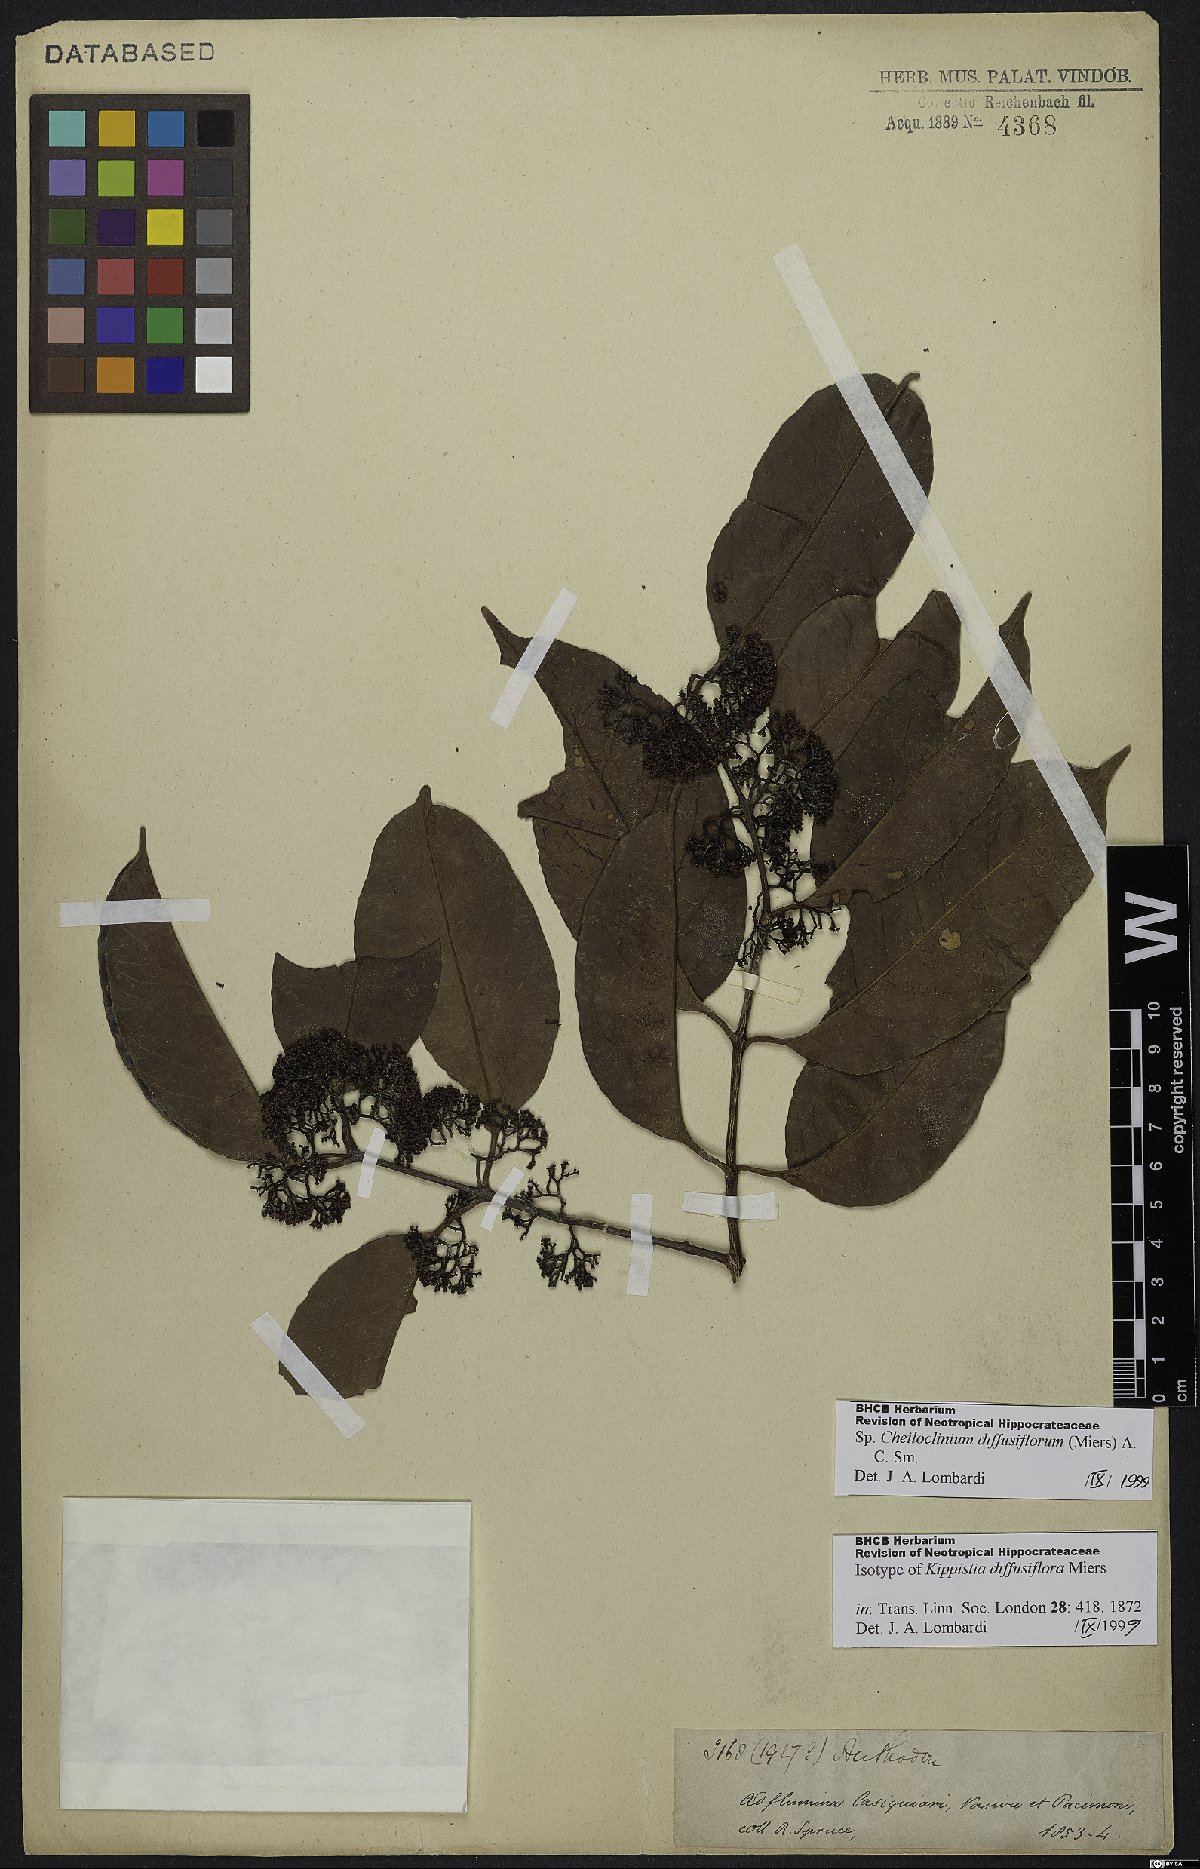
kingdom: Plantae
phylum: Tracheophyta
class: Magnoliopsida
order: Celastrales
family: Celastraceae
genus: Cheiloclinium
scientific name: Cheiloclinium serratum
